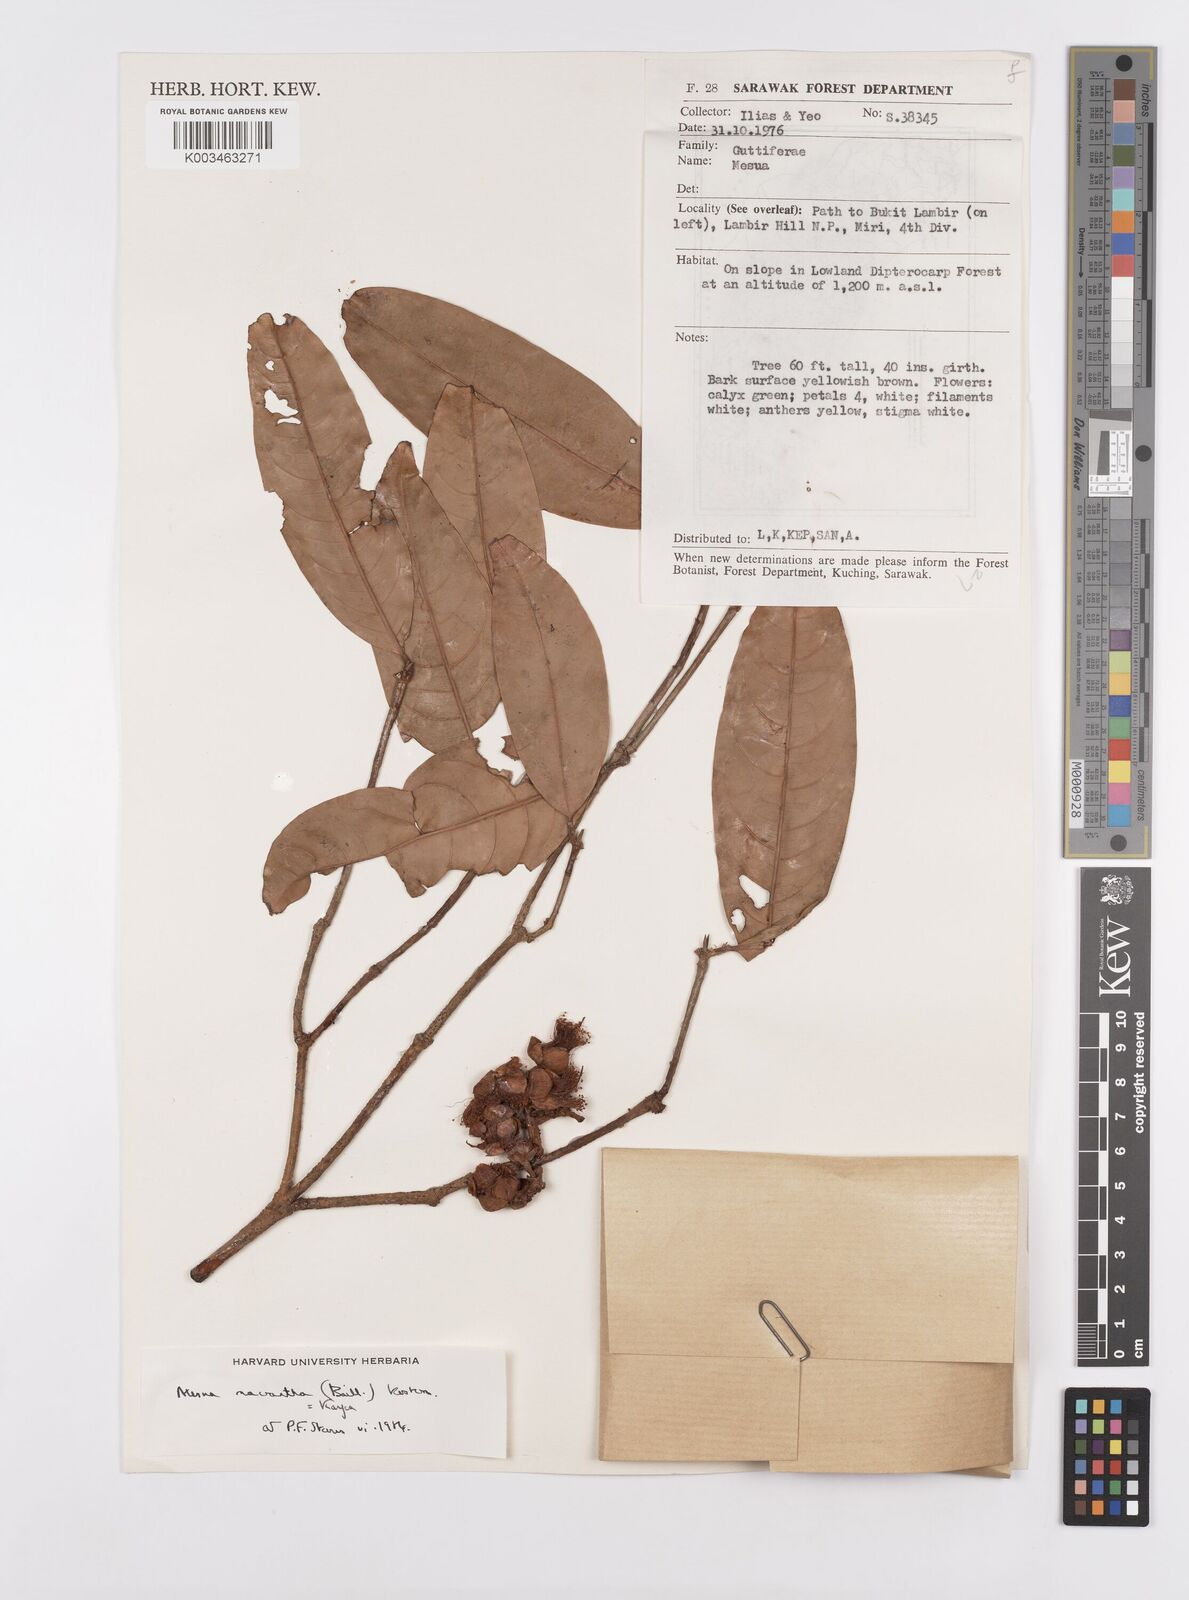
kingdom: Plantae
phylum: Tracheophyta
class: Magnoliopsida
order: Malpighiales
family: Calophyllaceae
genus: Kayea
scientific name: Kayea macrantha
